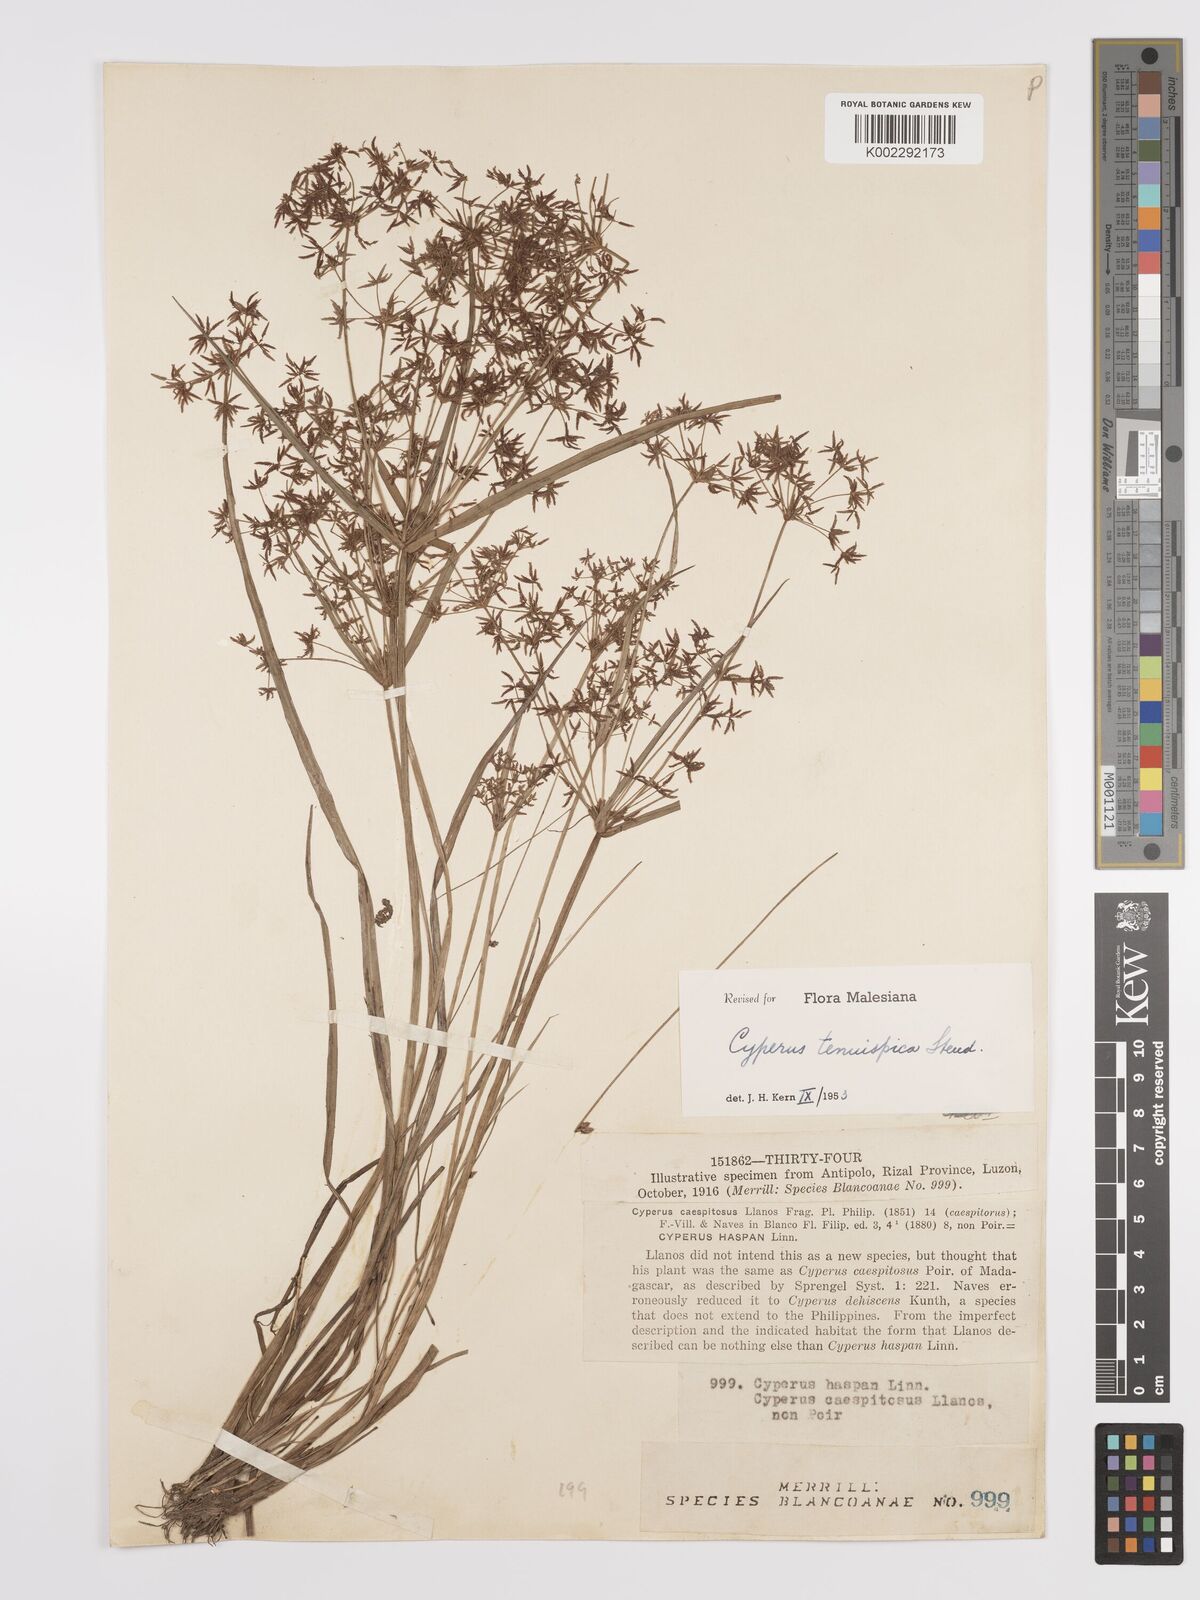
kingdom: Plantae
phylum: Tracheophyta
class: Liliopsida
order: Poales
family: Cyperaceae
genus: Cyperus
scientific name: Cyperus tenuispica
